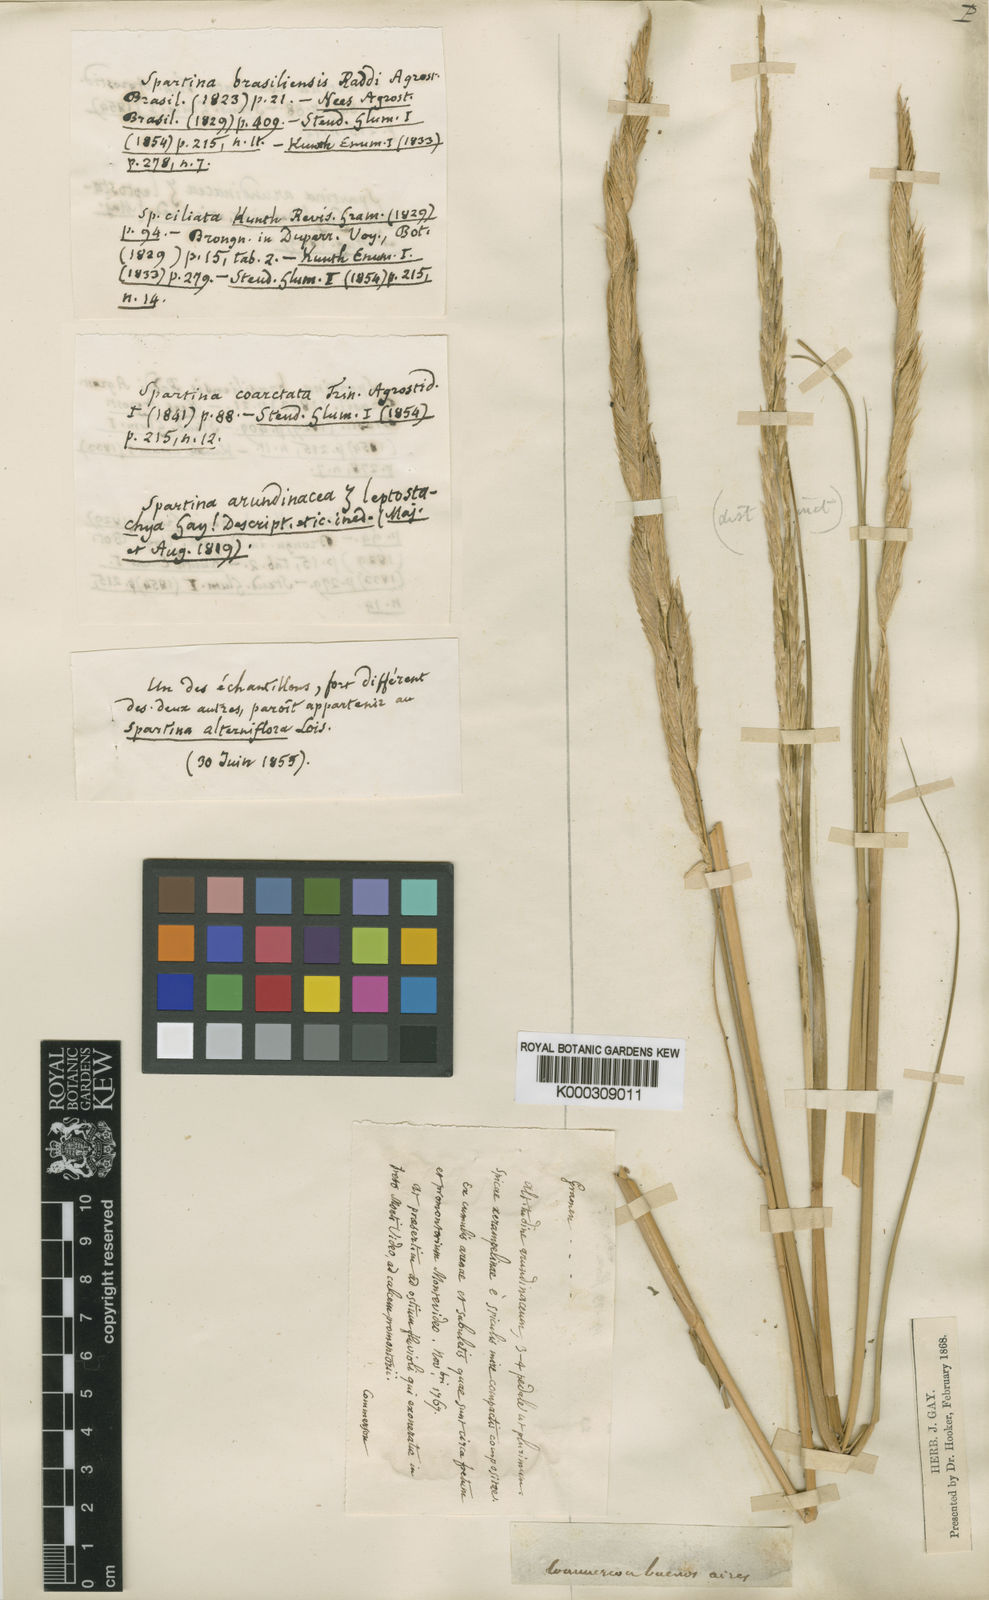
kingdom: Plantae
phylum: Tracheophyta
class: Liliopsida
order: Poales
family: Poaceae
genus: Sporobolus
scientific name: Sporobolus coarctatus
